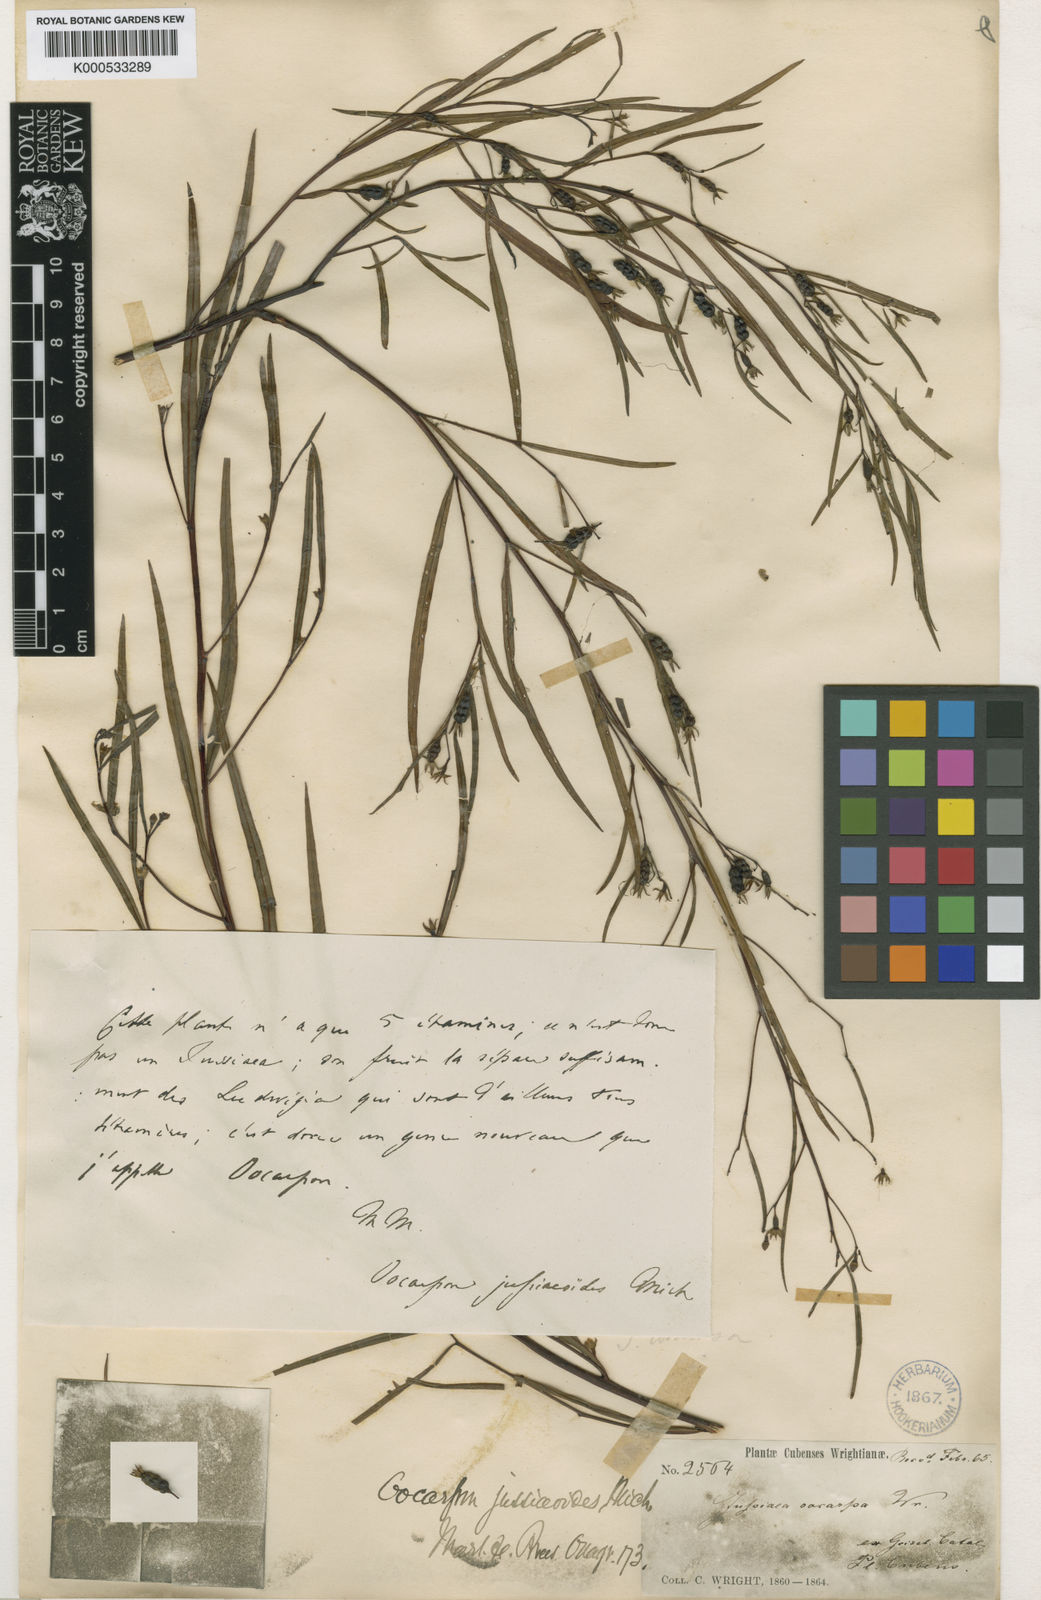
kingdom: Plantae
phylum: Tracheophyta
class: Magnoliopsida
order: Myrtales
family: Onagraceae
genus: Ludwigia
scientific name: Ludwigia torulosa
